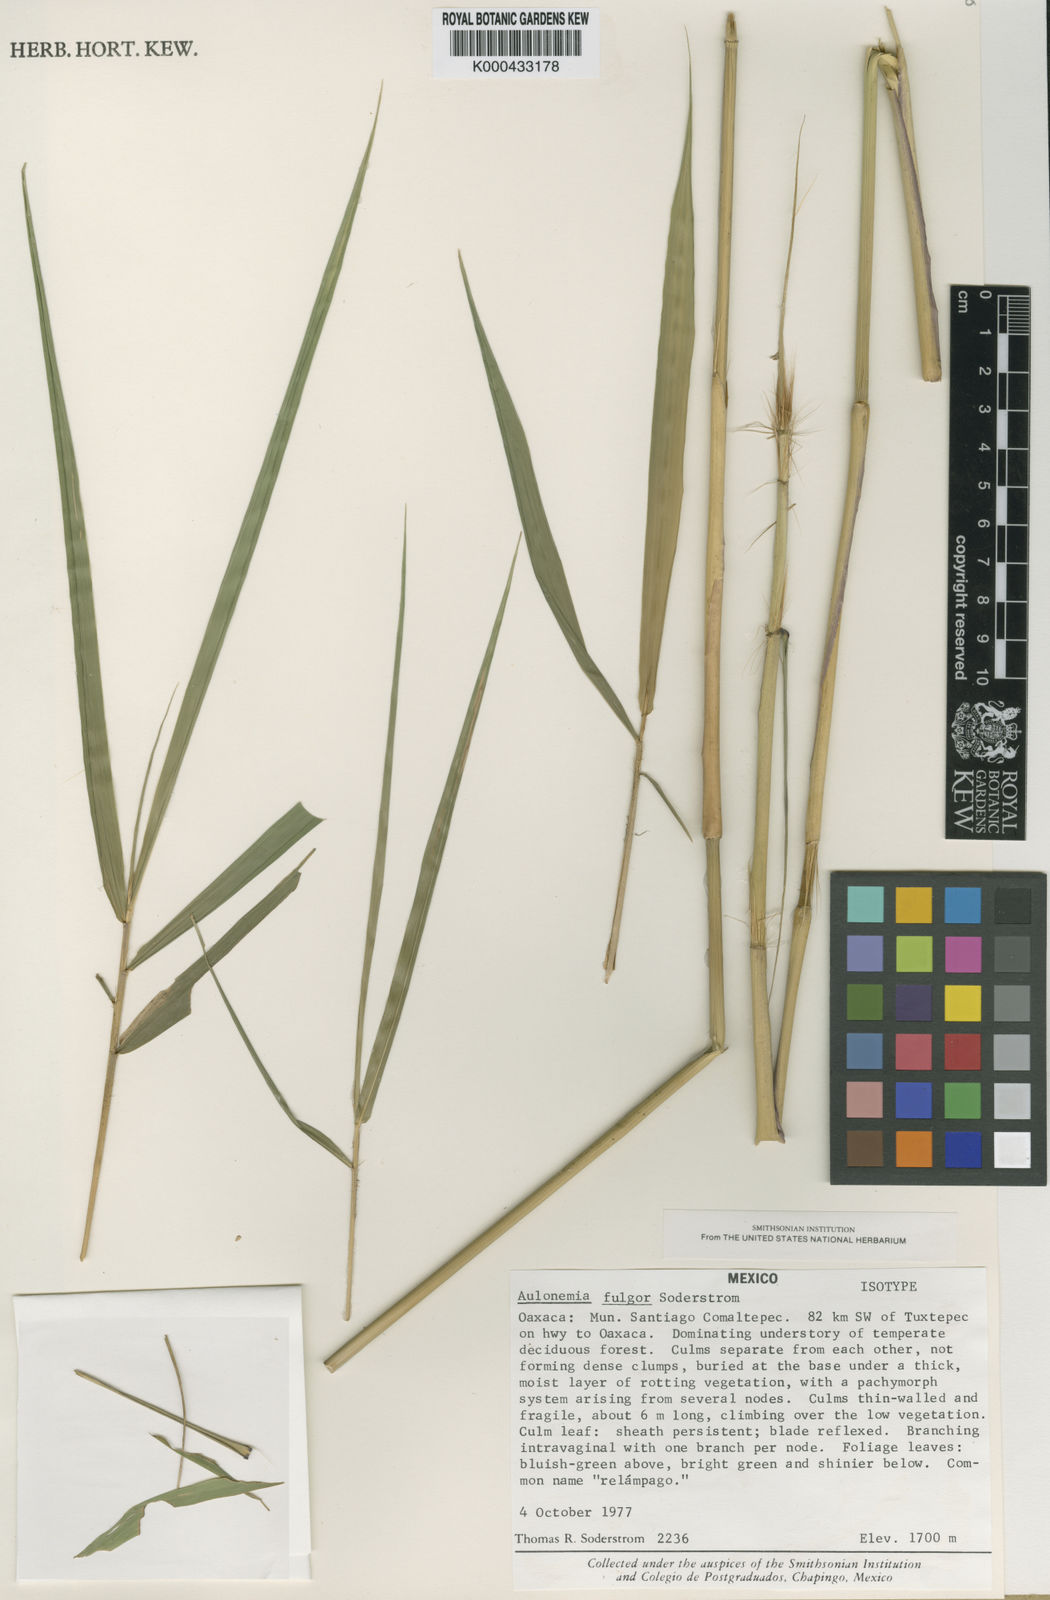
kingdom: Plantae
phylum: Tracheophyta
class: Liliopsida
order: Poales
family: Poaceae
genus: Olmeca
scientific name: Olmeca fulgor
